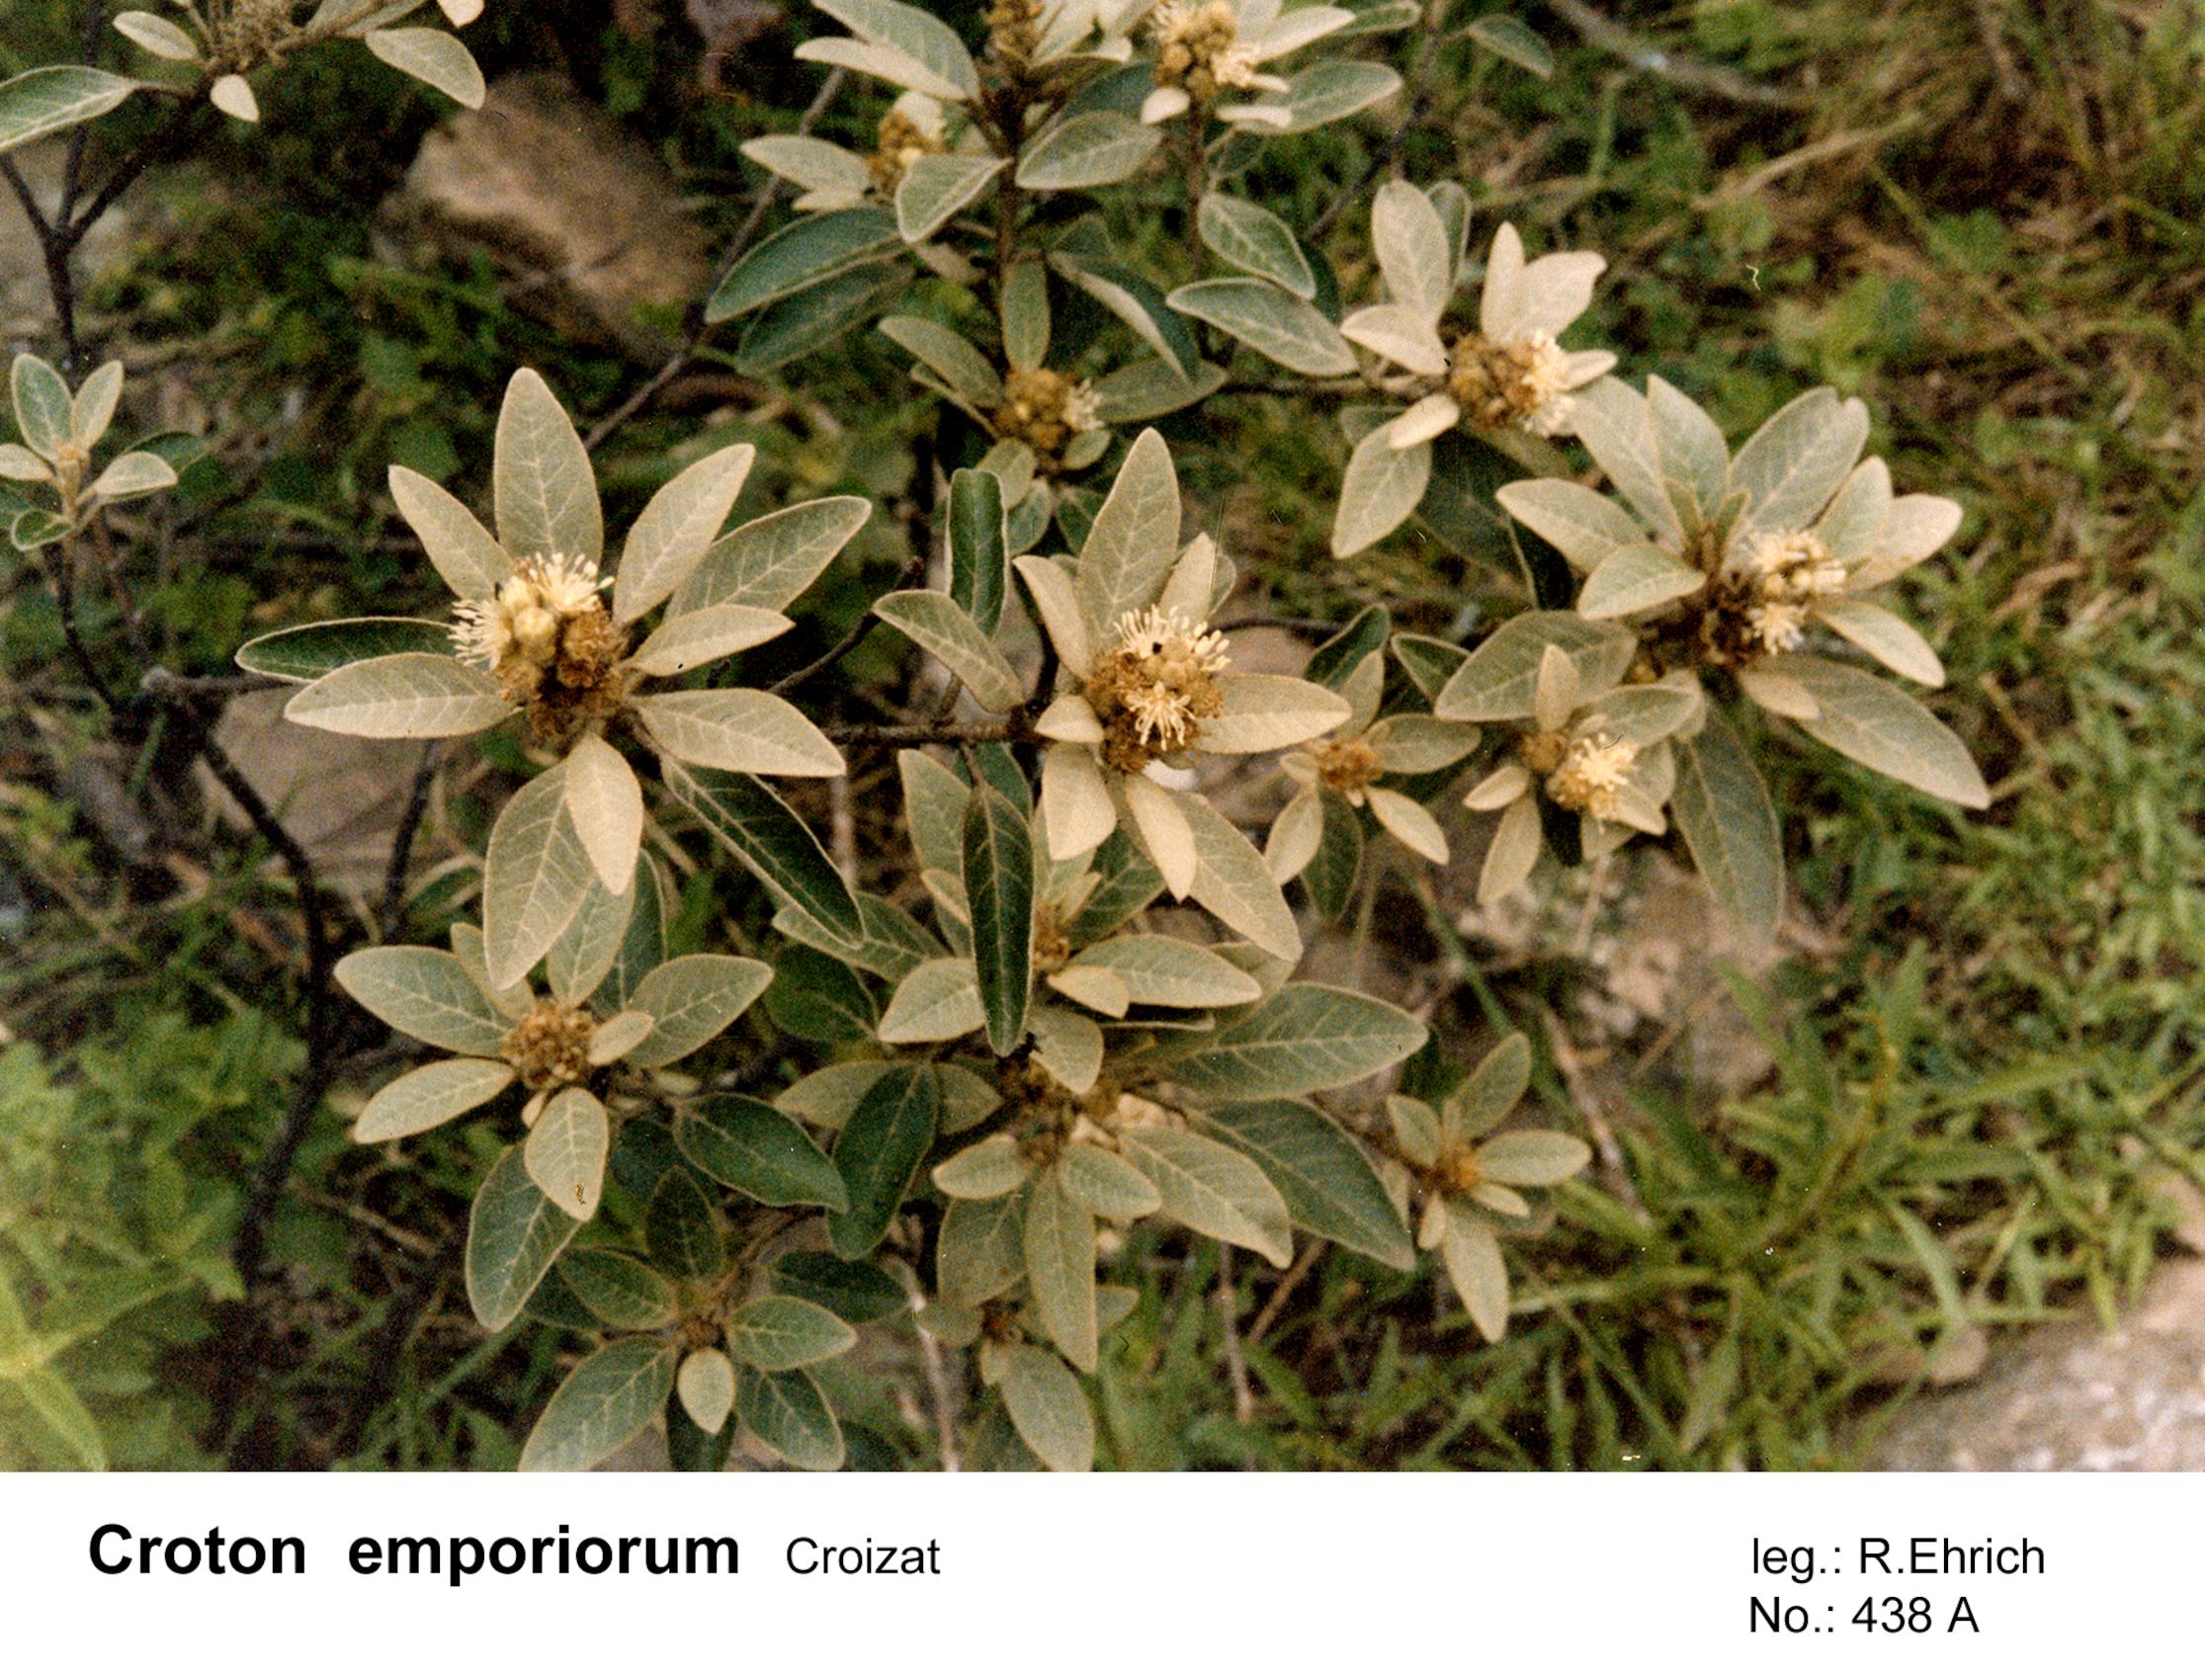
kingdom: Plantae
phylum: Tracheophyta
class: Magnoliopsida
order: Malpighiales
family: Euphorbiaceae
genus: Croton
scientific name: Croton emporiorum
